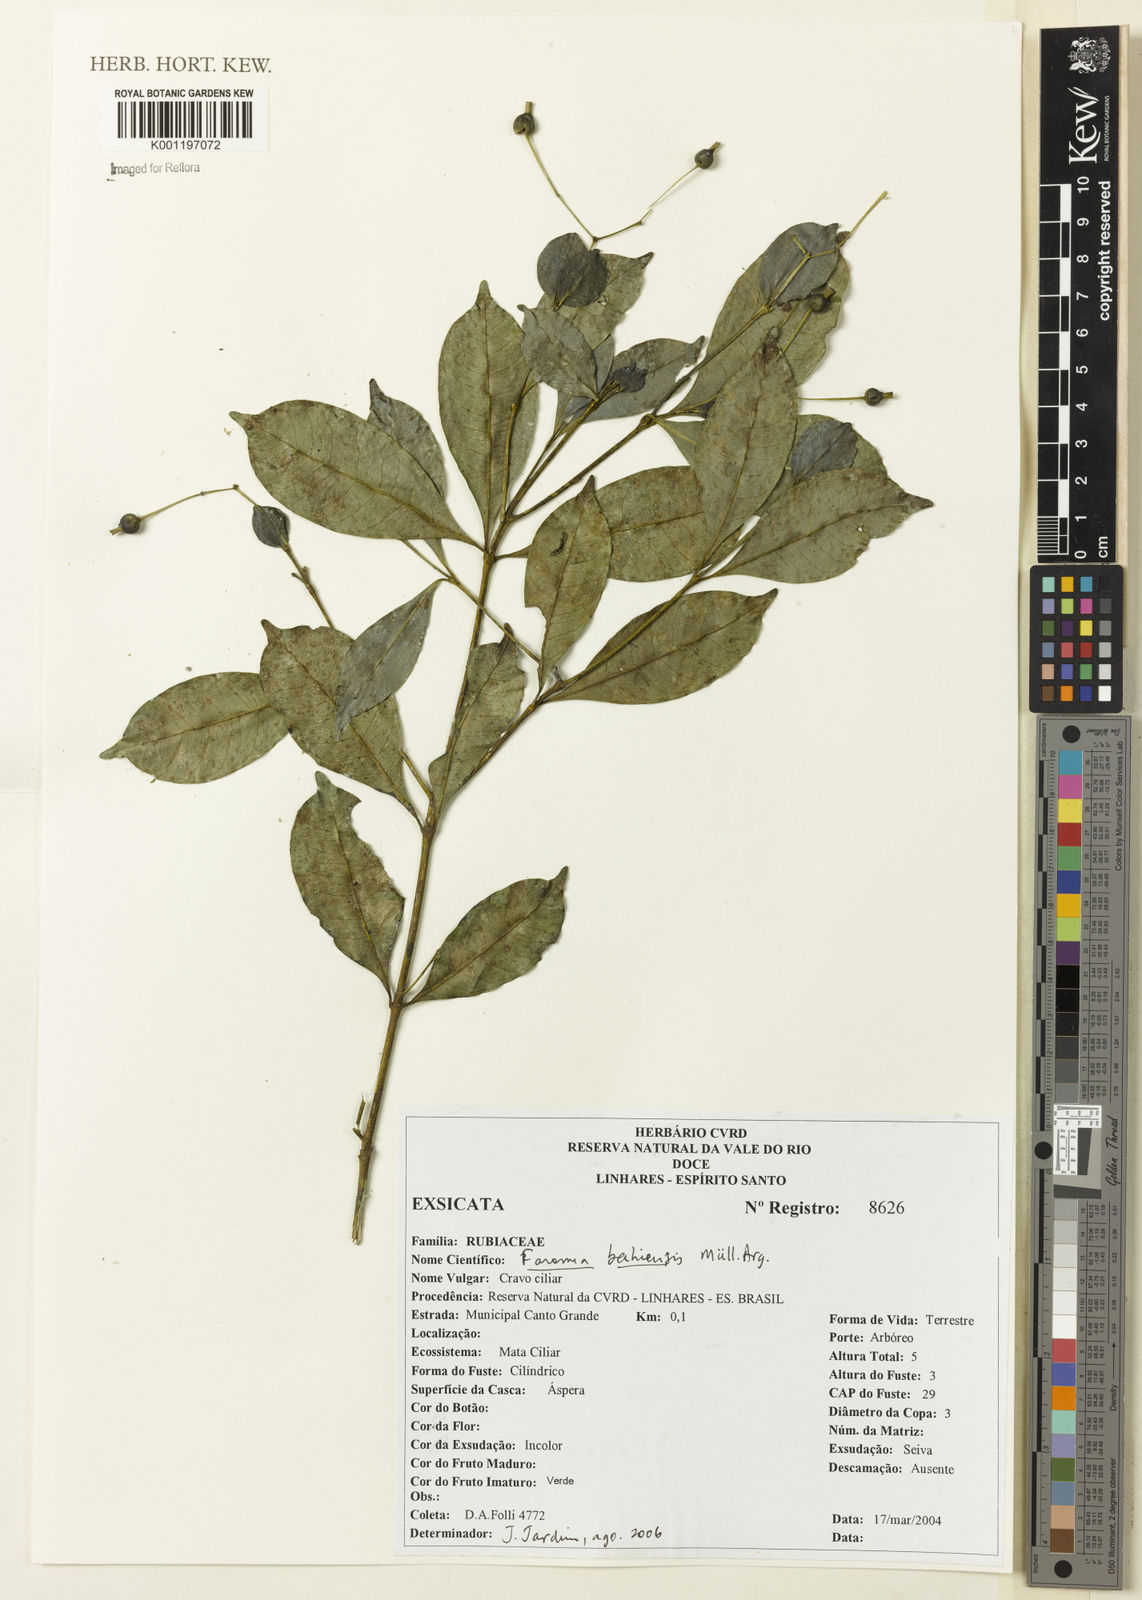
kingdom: Plantae
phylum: Tracheophyta
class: Magnoliopsida
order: Gentianales
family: Rubiaceae
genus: Faramea
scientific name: Faramea
